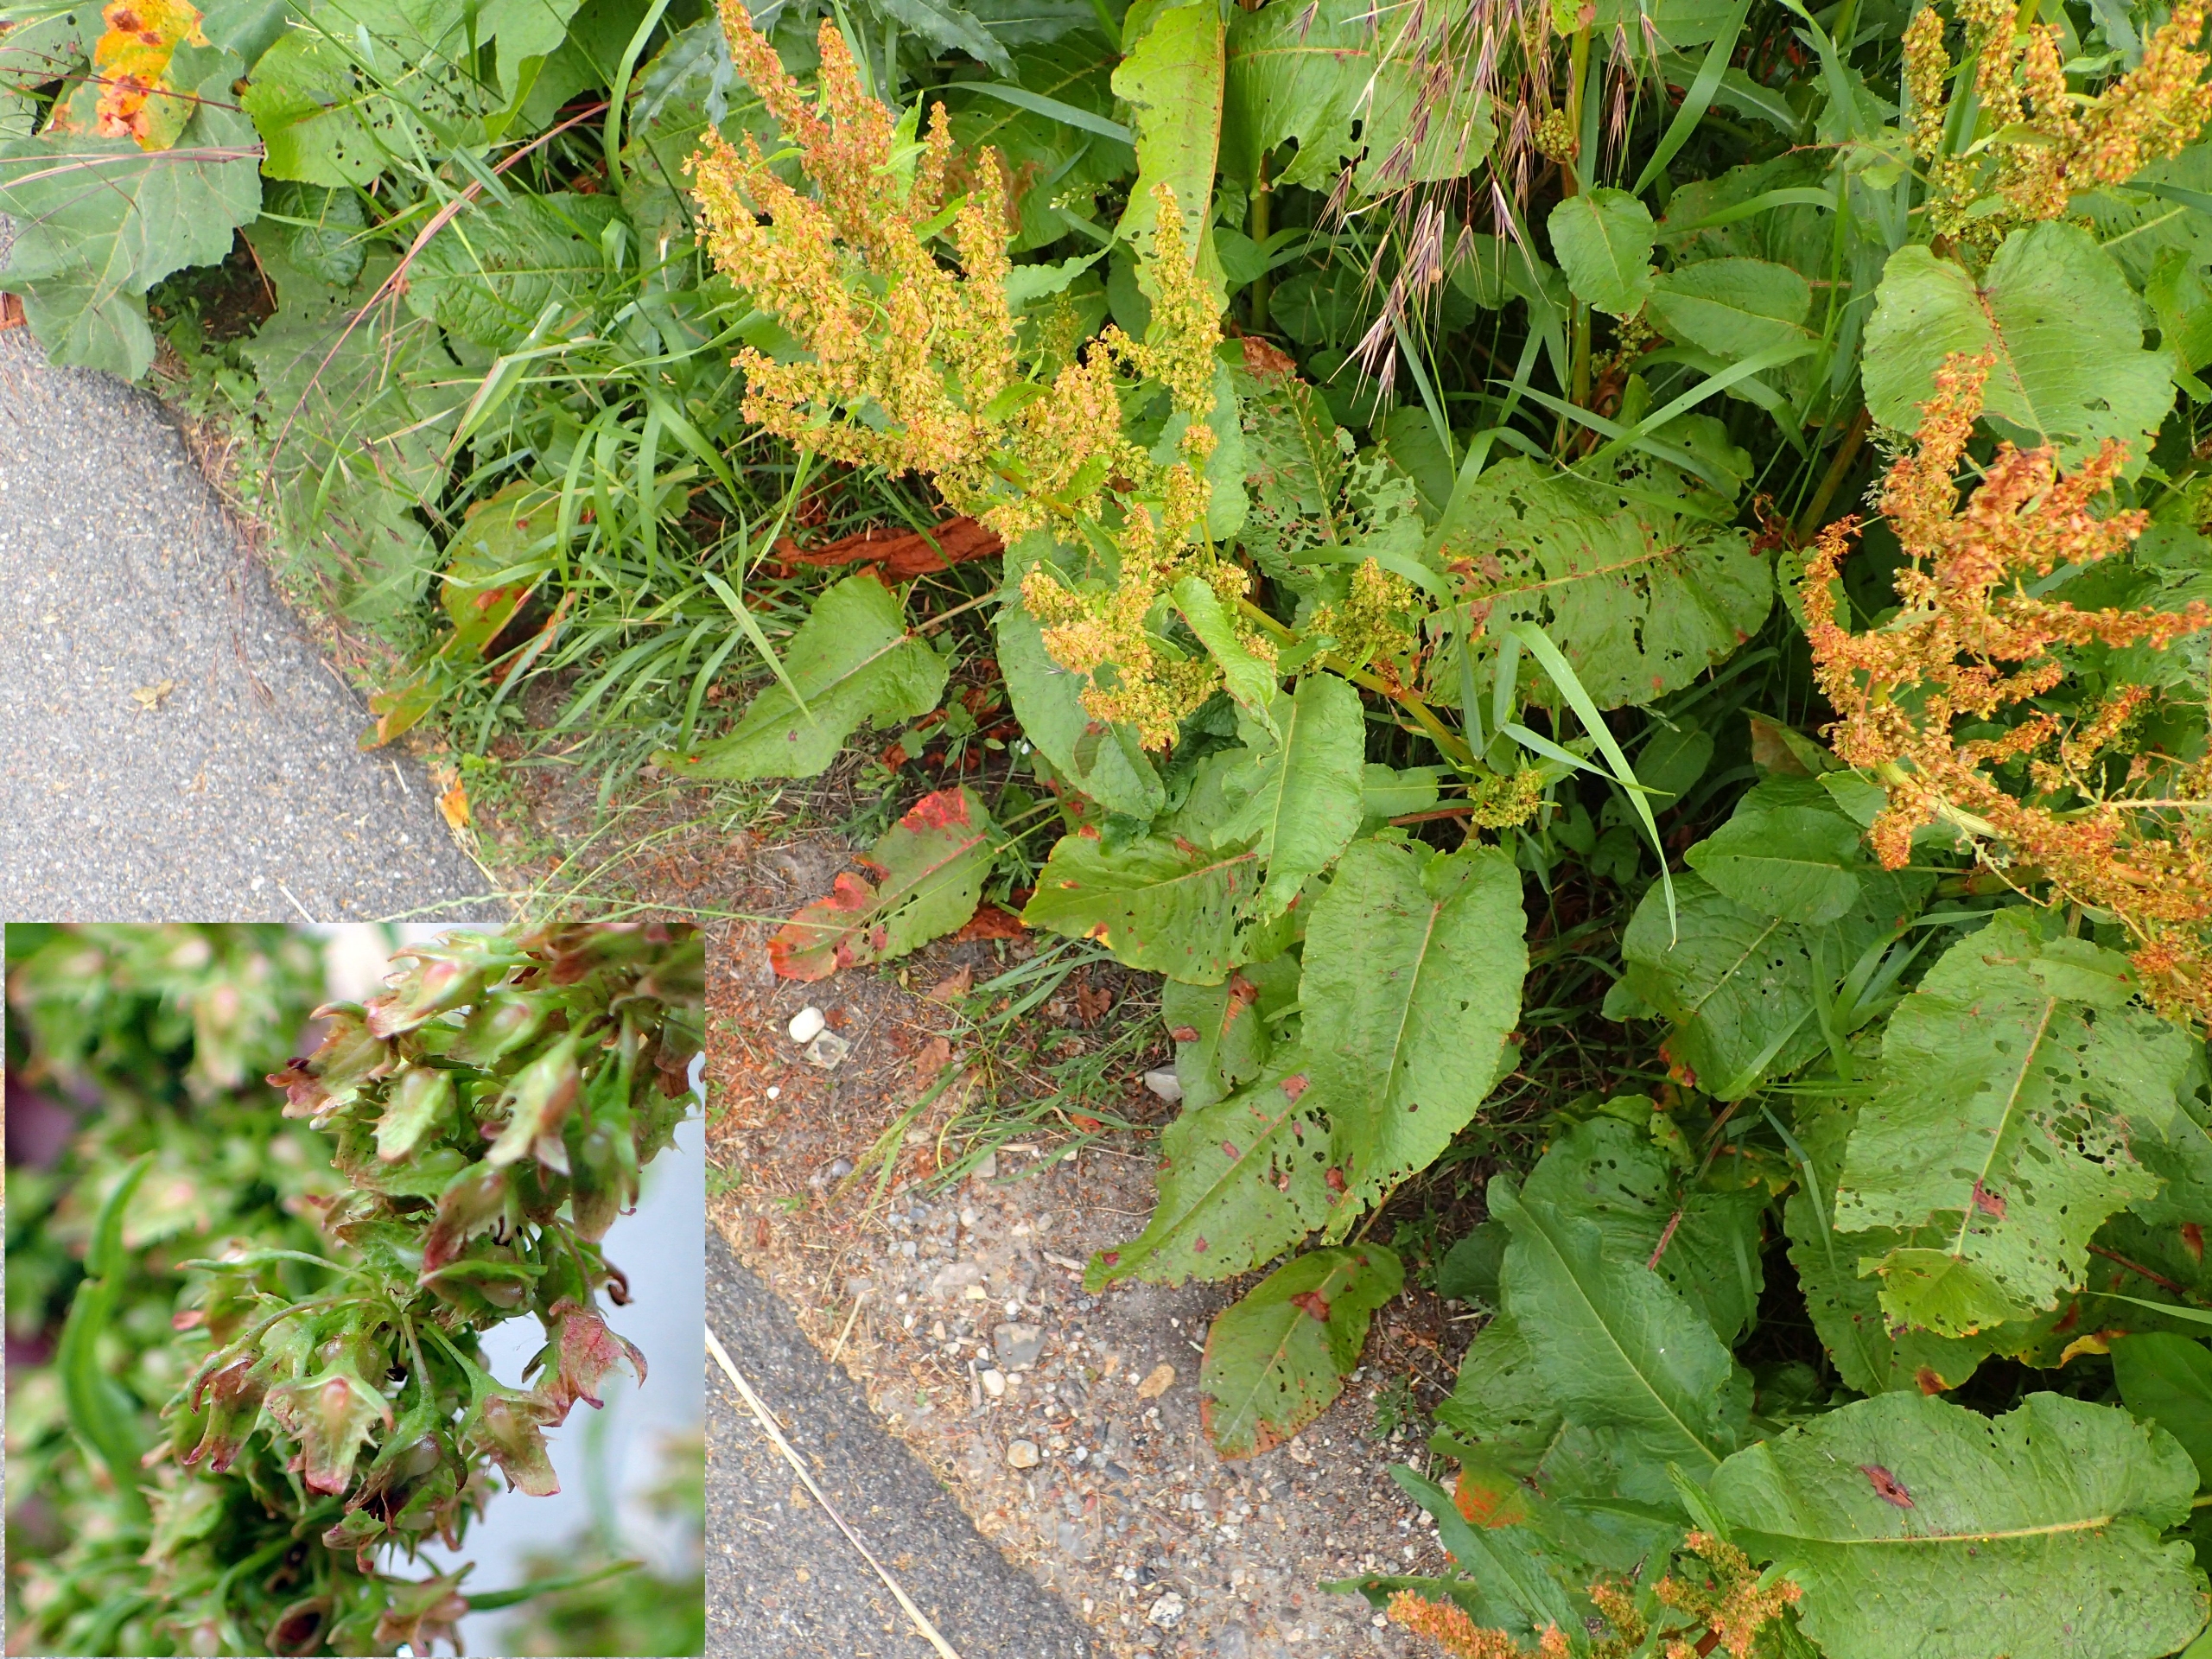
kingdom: Plantae
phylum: Tracheophyta
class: Magnoliopsida
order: Caryophyllales
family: Polygonaceae
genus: Rumex
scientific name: Rumex obtusifolius
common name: Butbladet skræppe
